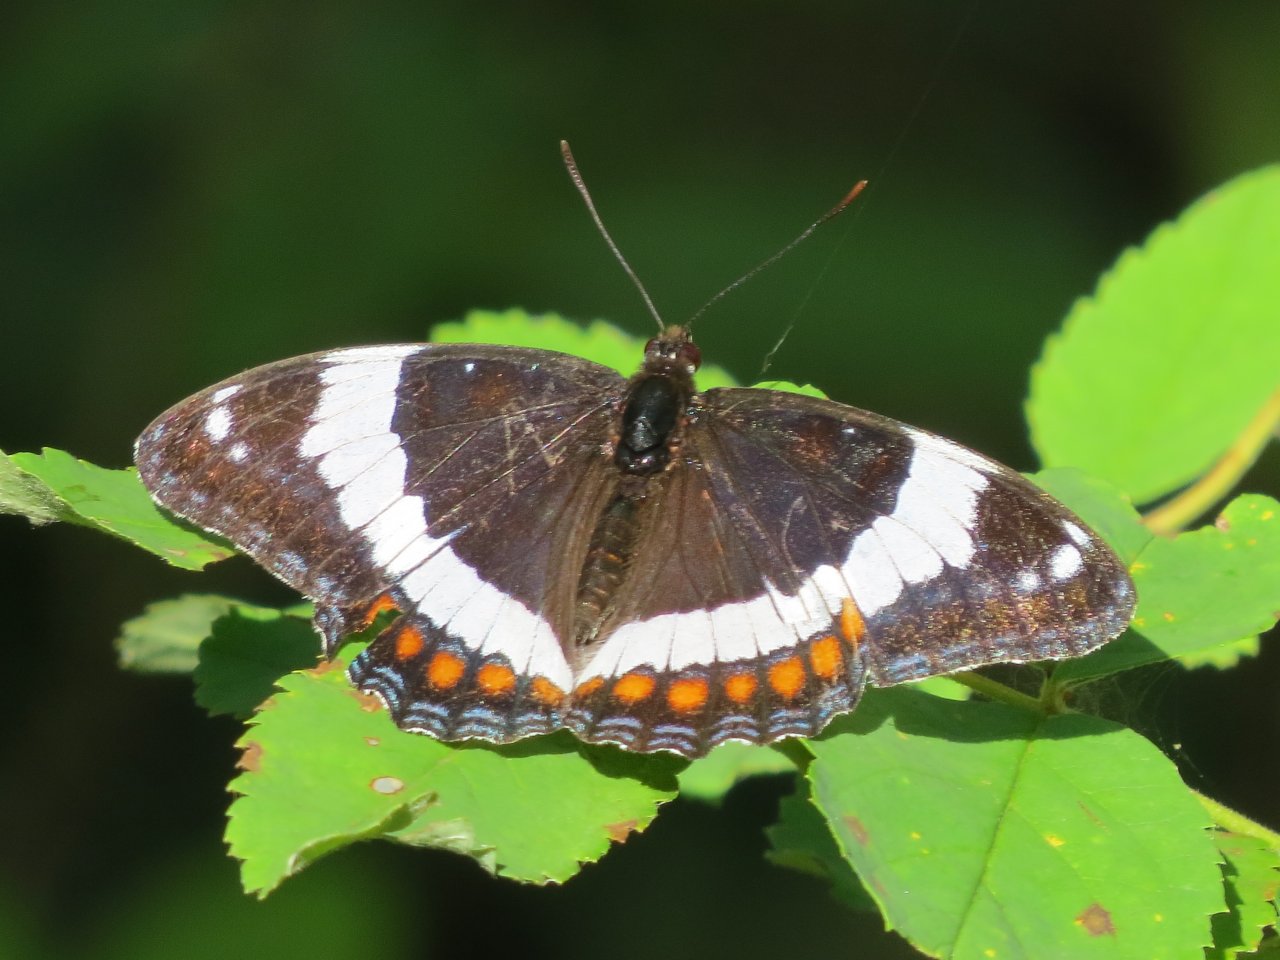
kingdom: Animalia
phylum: Arthropoda
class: Insecta
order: Lepidoptera
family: Nymphalidae
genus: Limenitis
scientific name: Limenitis arthemis
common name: Red-spotted Admiral
